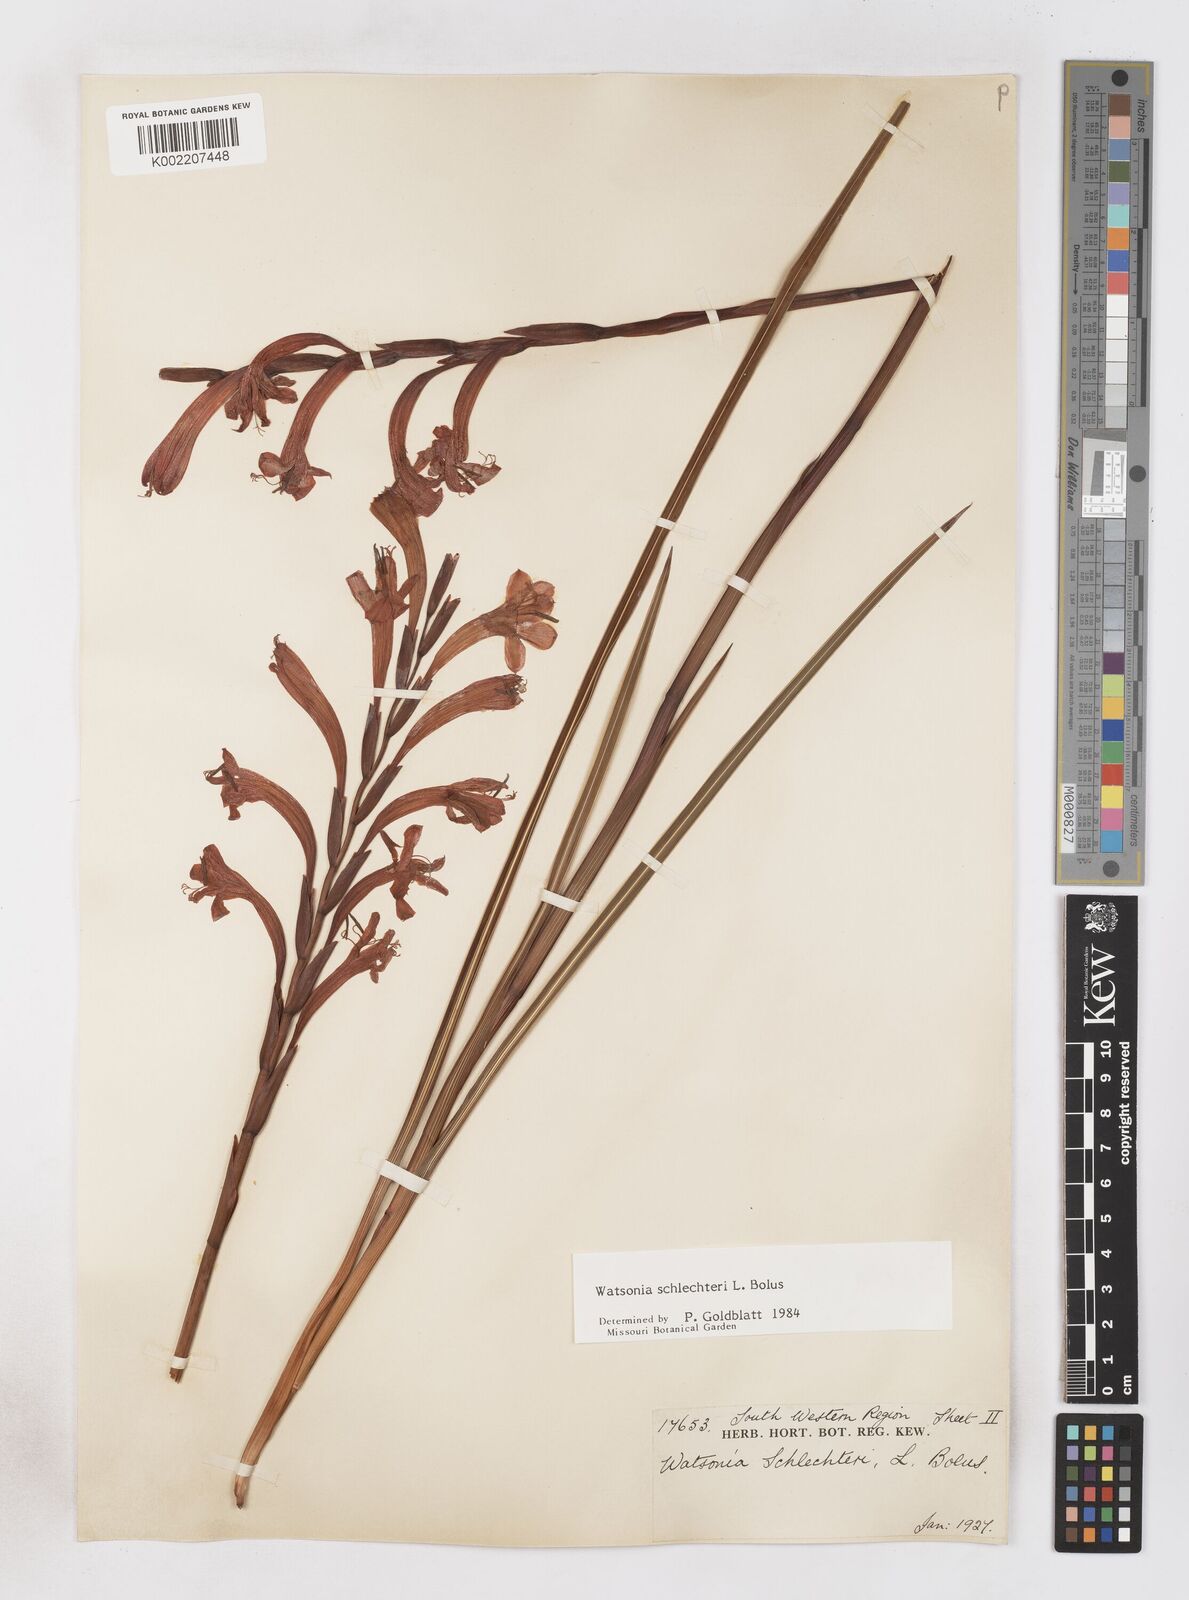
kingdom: Plantae
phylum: Tracheophyta
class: Liliopsida
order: Asparagales
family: Iridaceae
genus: Watsonia
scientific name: Watsonia schlechteri
